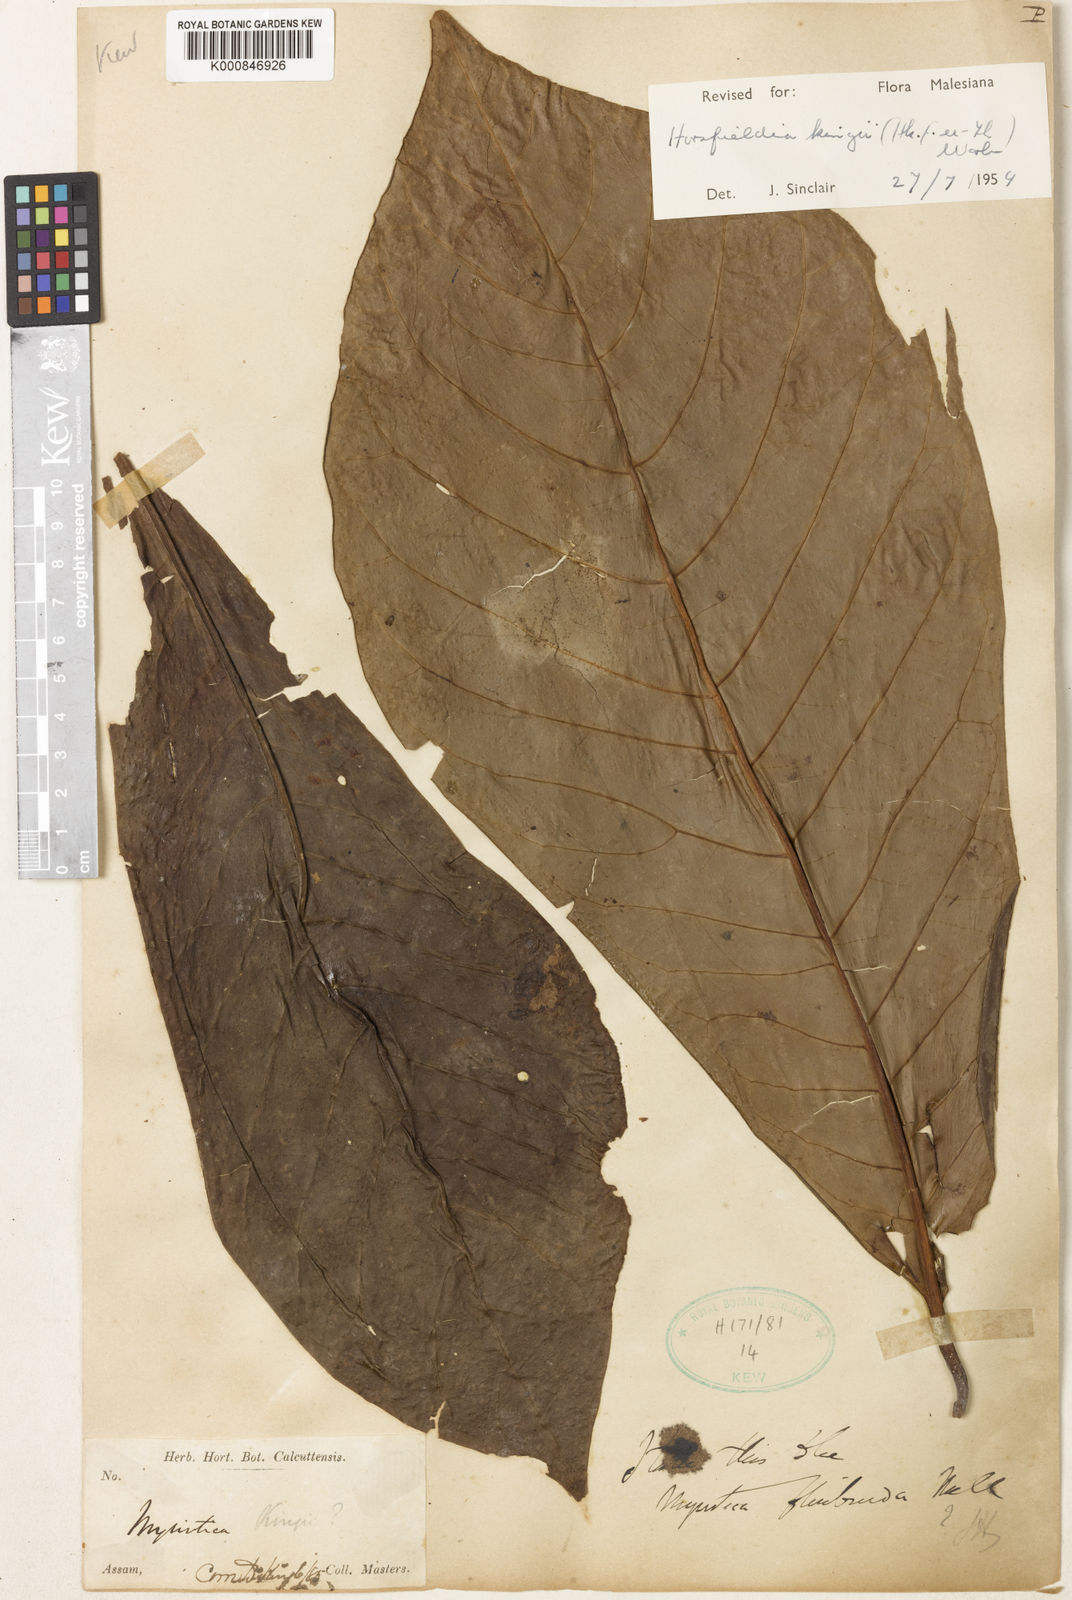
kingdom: Plantae
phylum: Tracheophyta
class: Magnoliopsida
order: Magnoliales
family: Myristicaceae
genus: Horsfieldia
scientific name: Horsfieldia kingii
